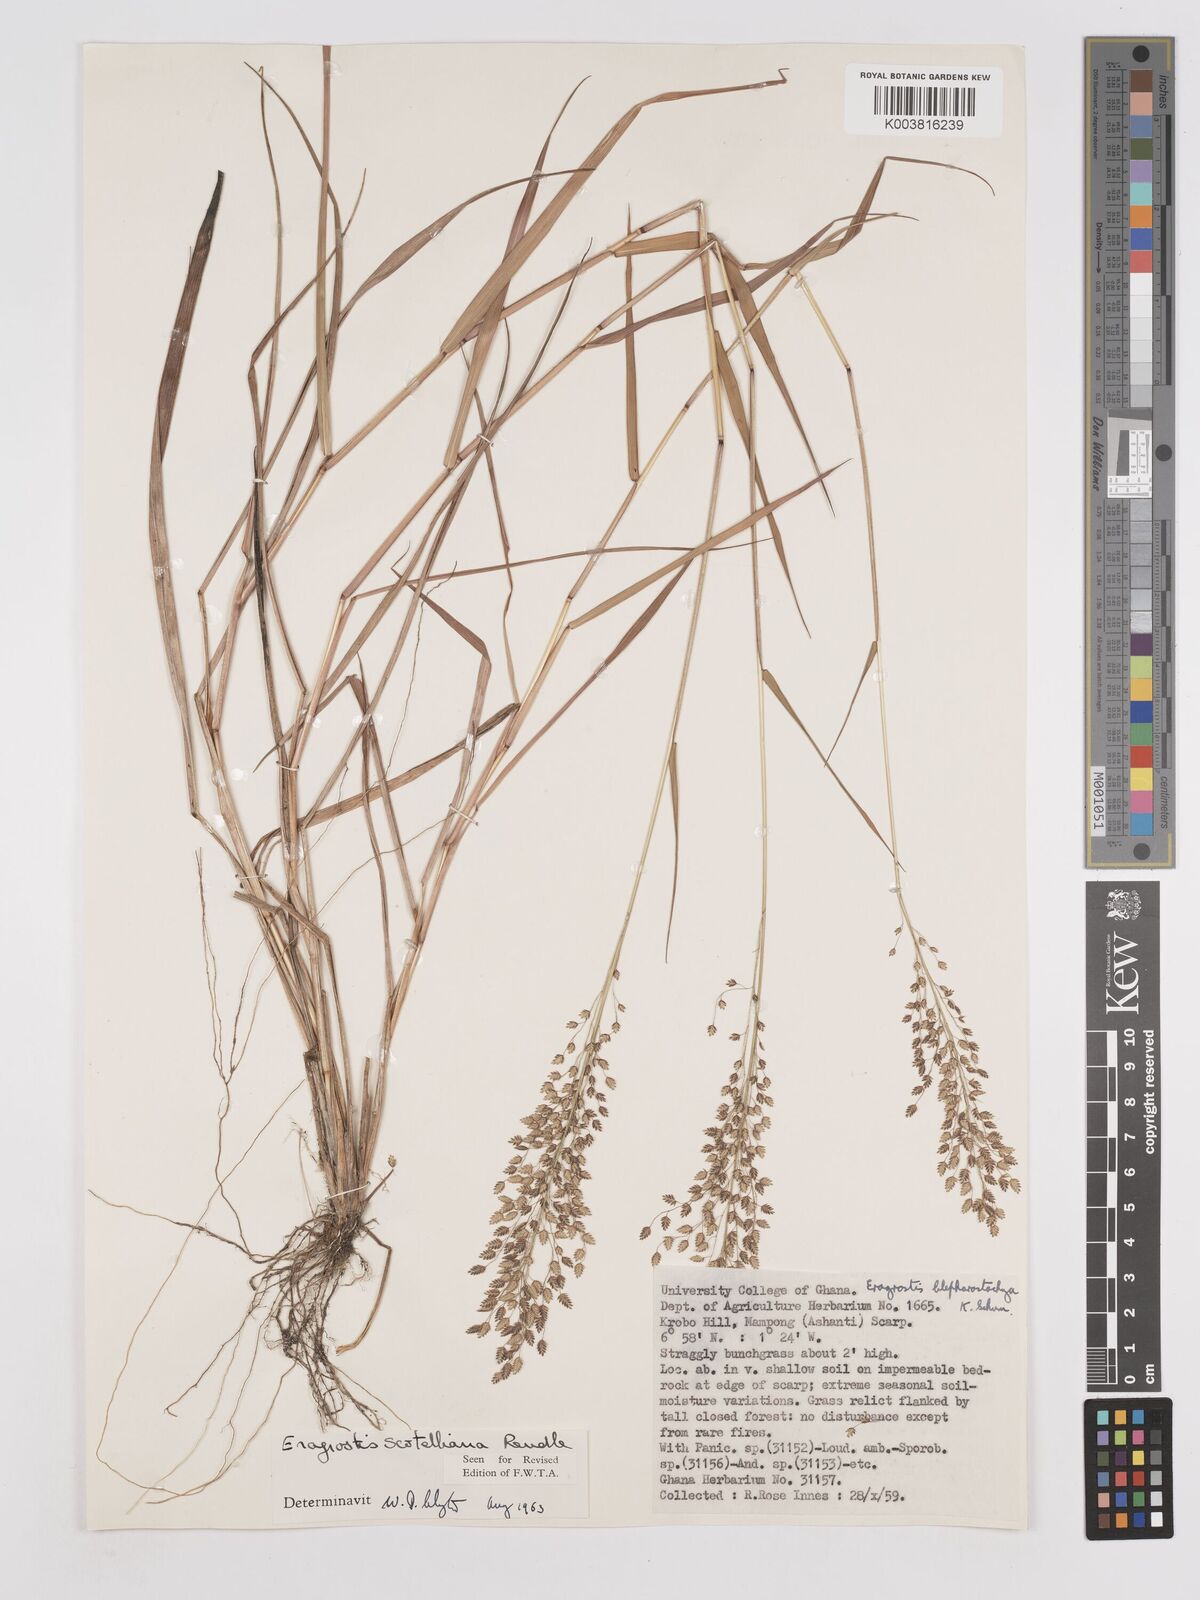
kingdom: Plantae
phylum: Tracheophyta
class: Liliopsida
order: Poales
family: Poaceae
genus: Eragrostis
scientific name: Eragrostis scotelliana
